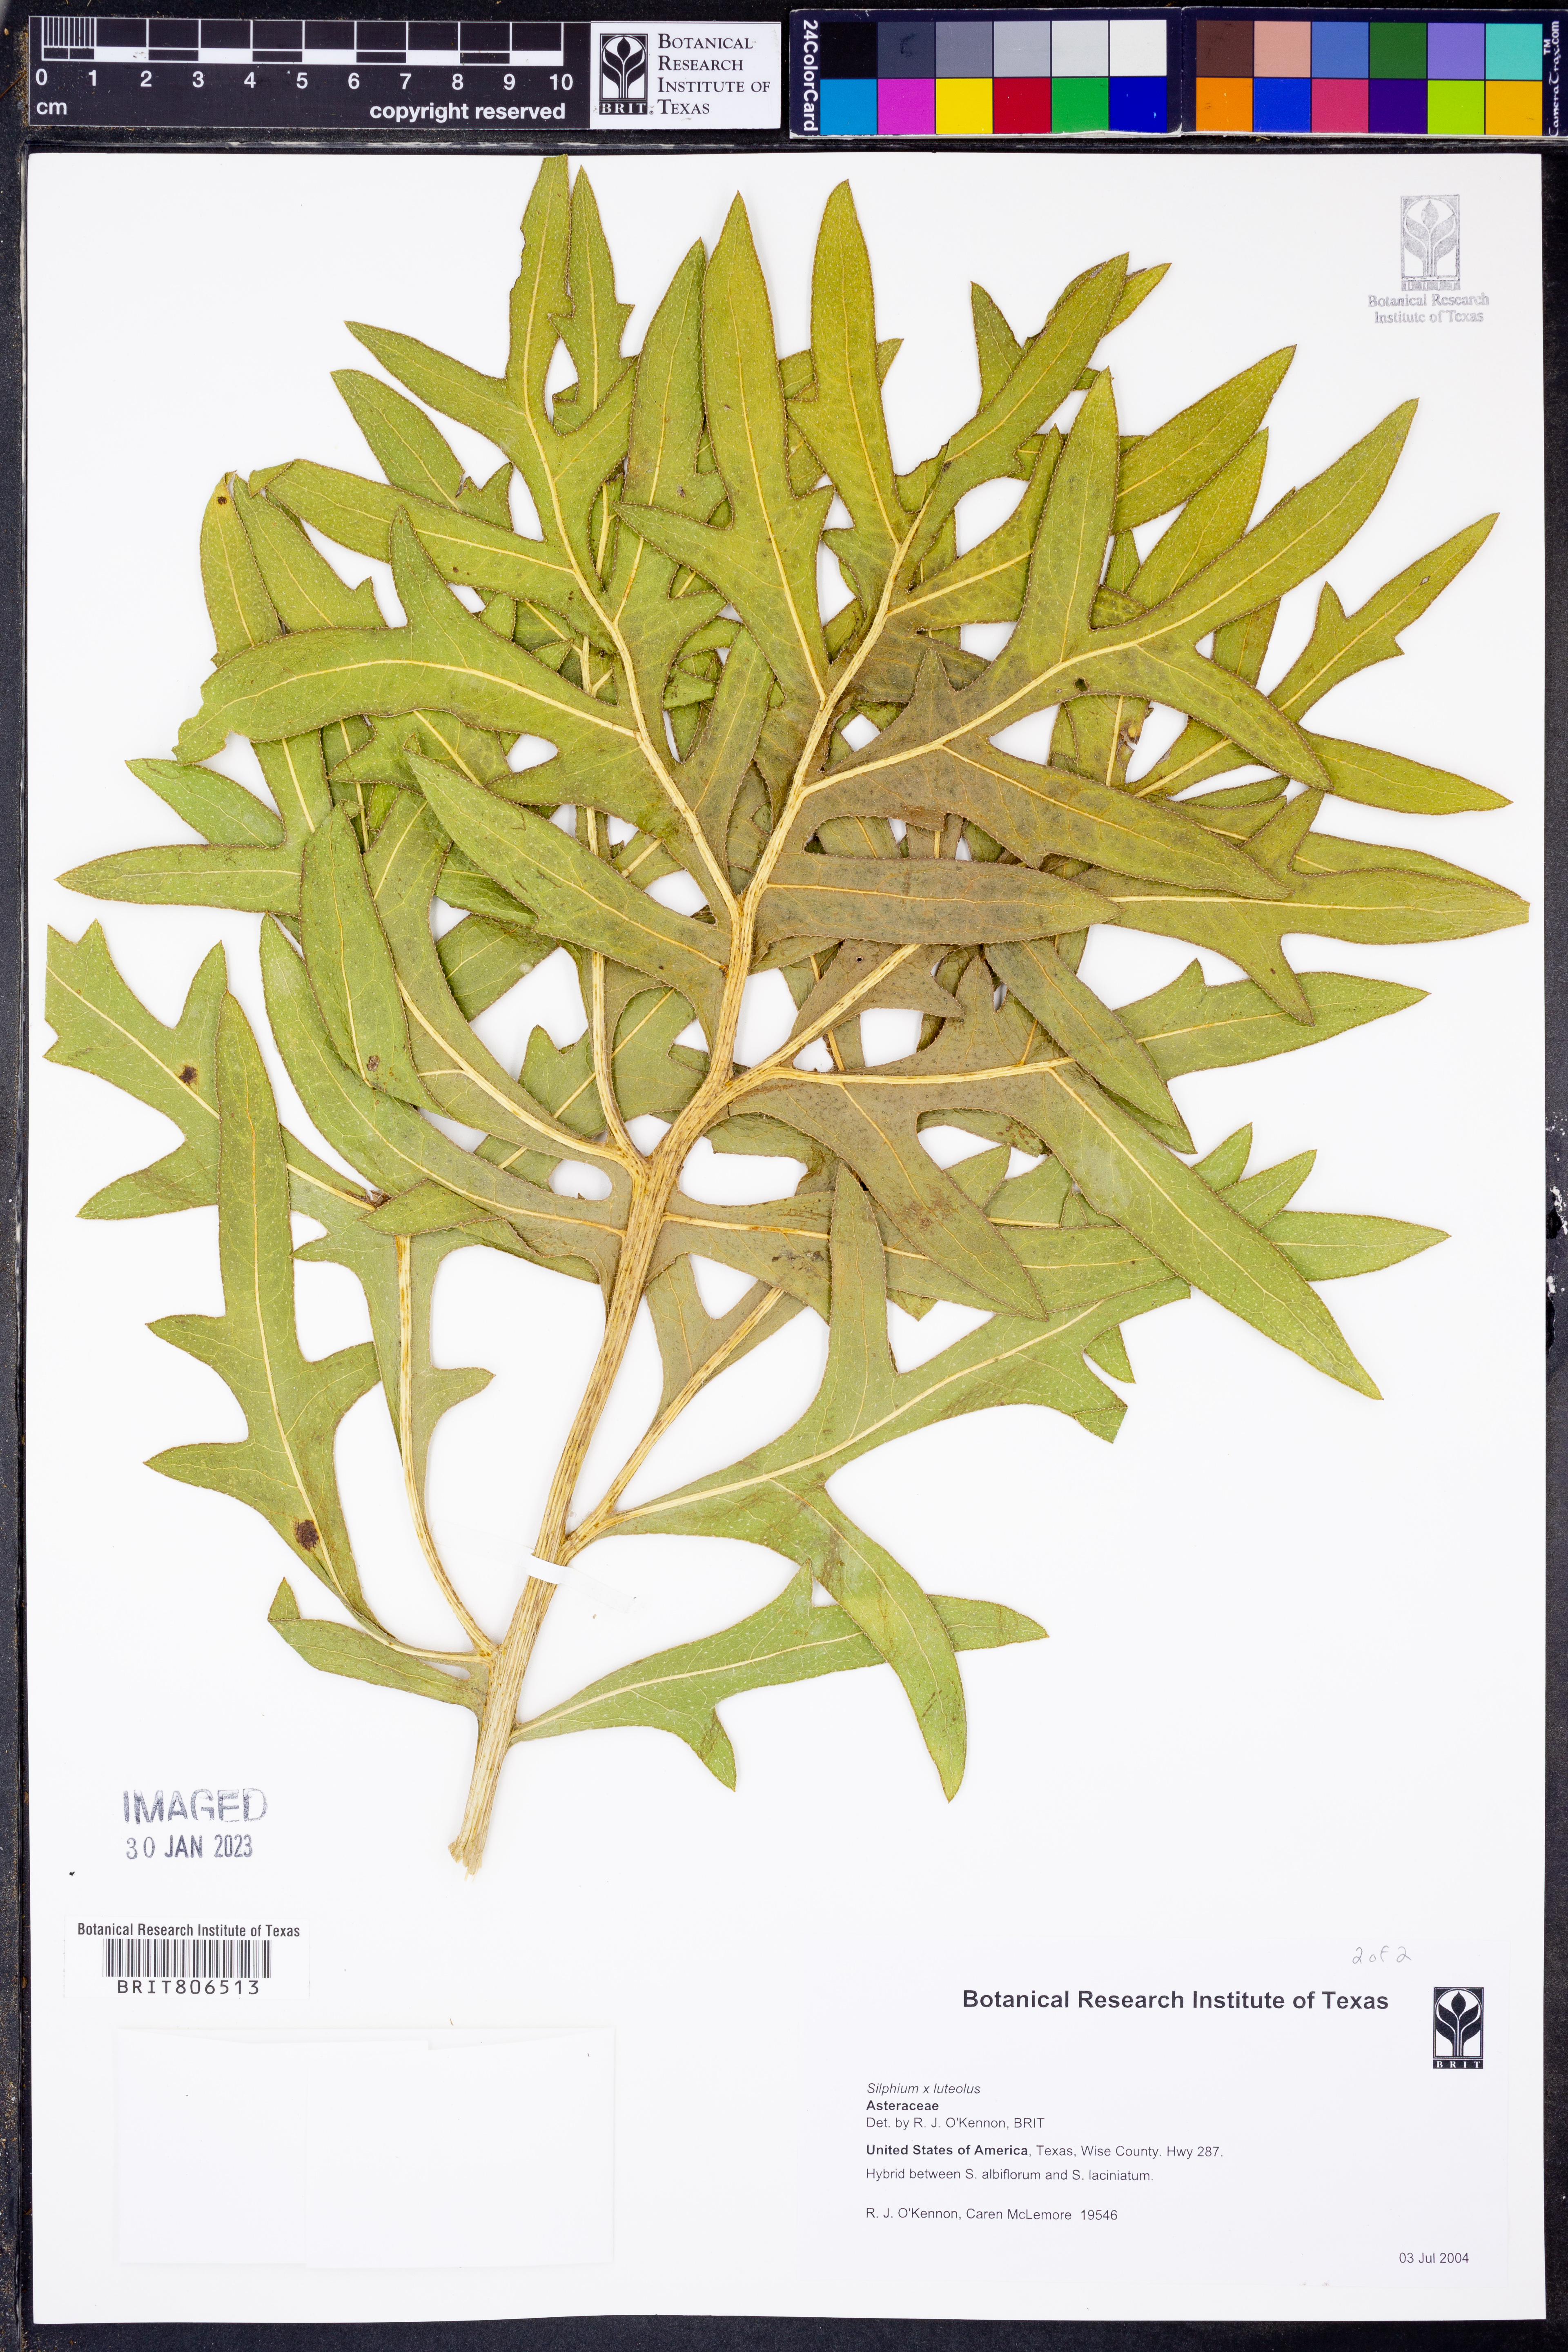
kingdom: Plantae
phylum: Tracheophyta
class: Magnoliopsida
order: Asterales
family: Asteraceae
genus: Silphium
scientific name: Silphium
